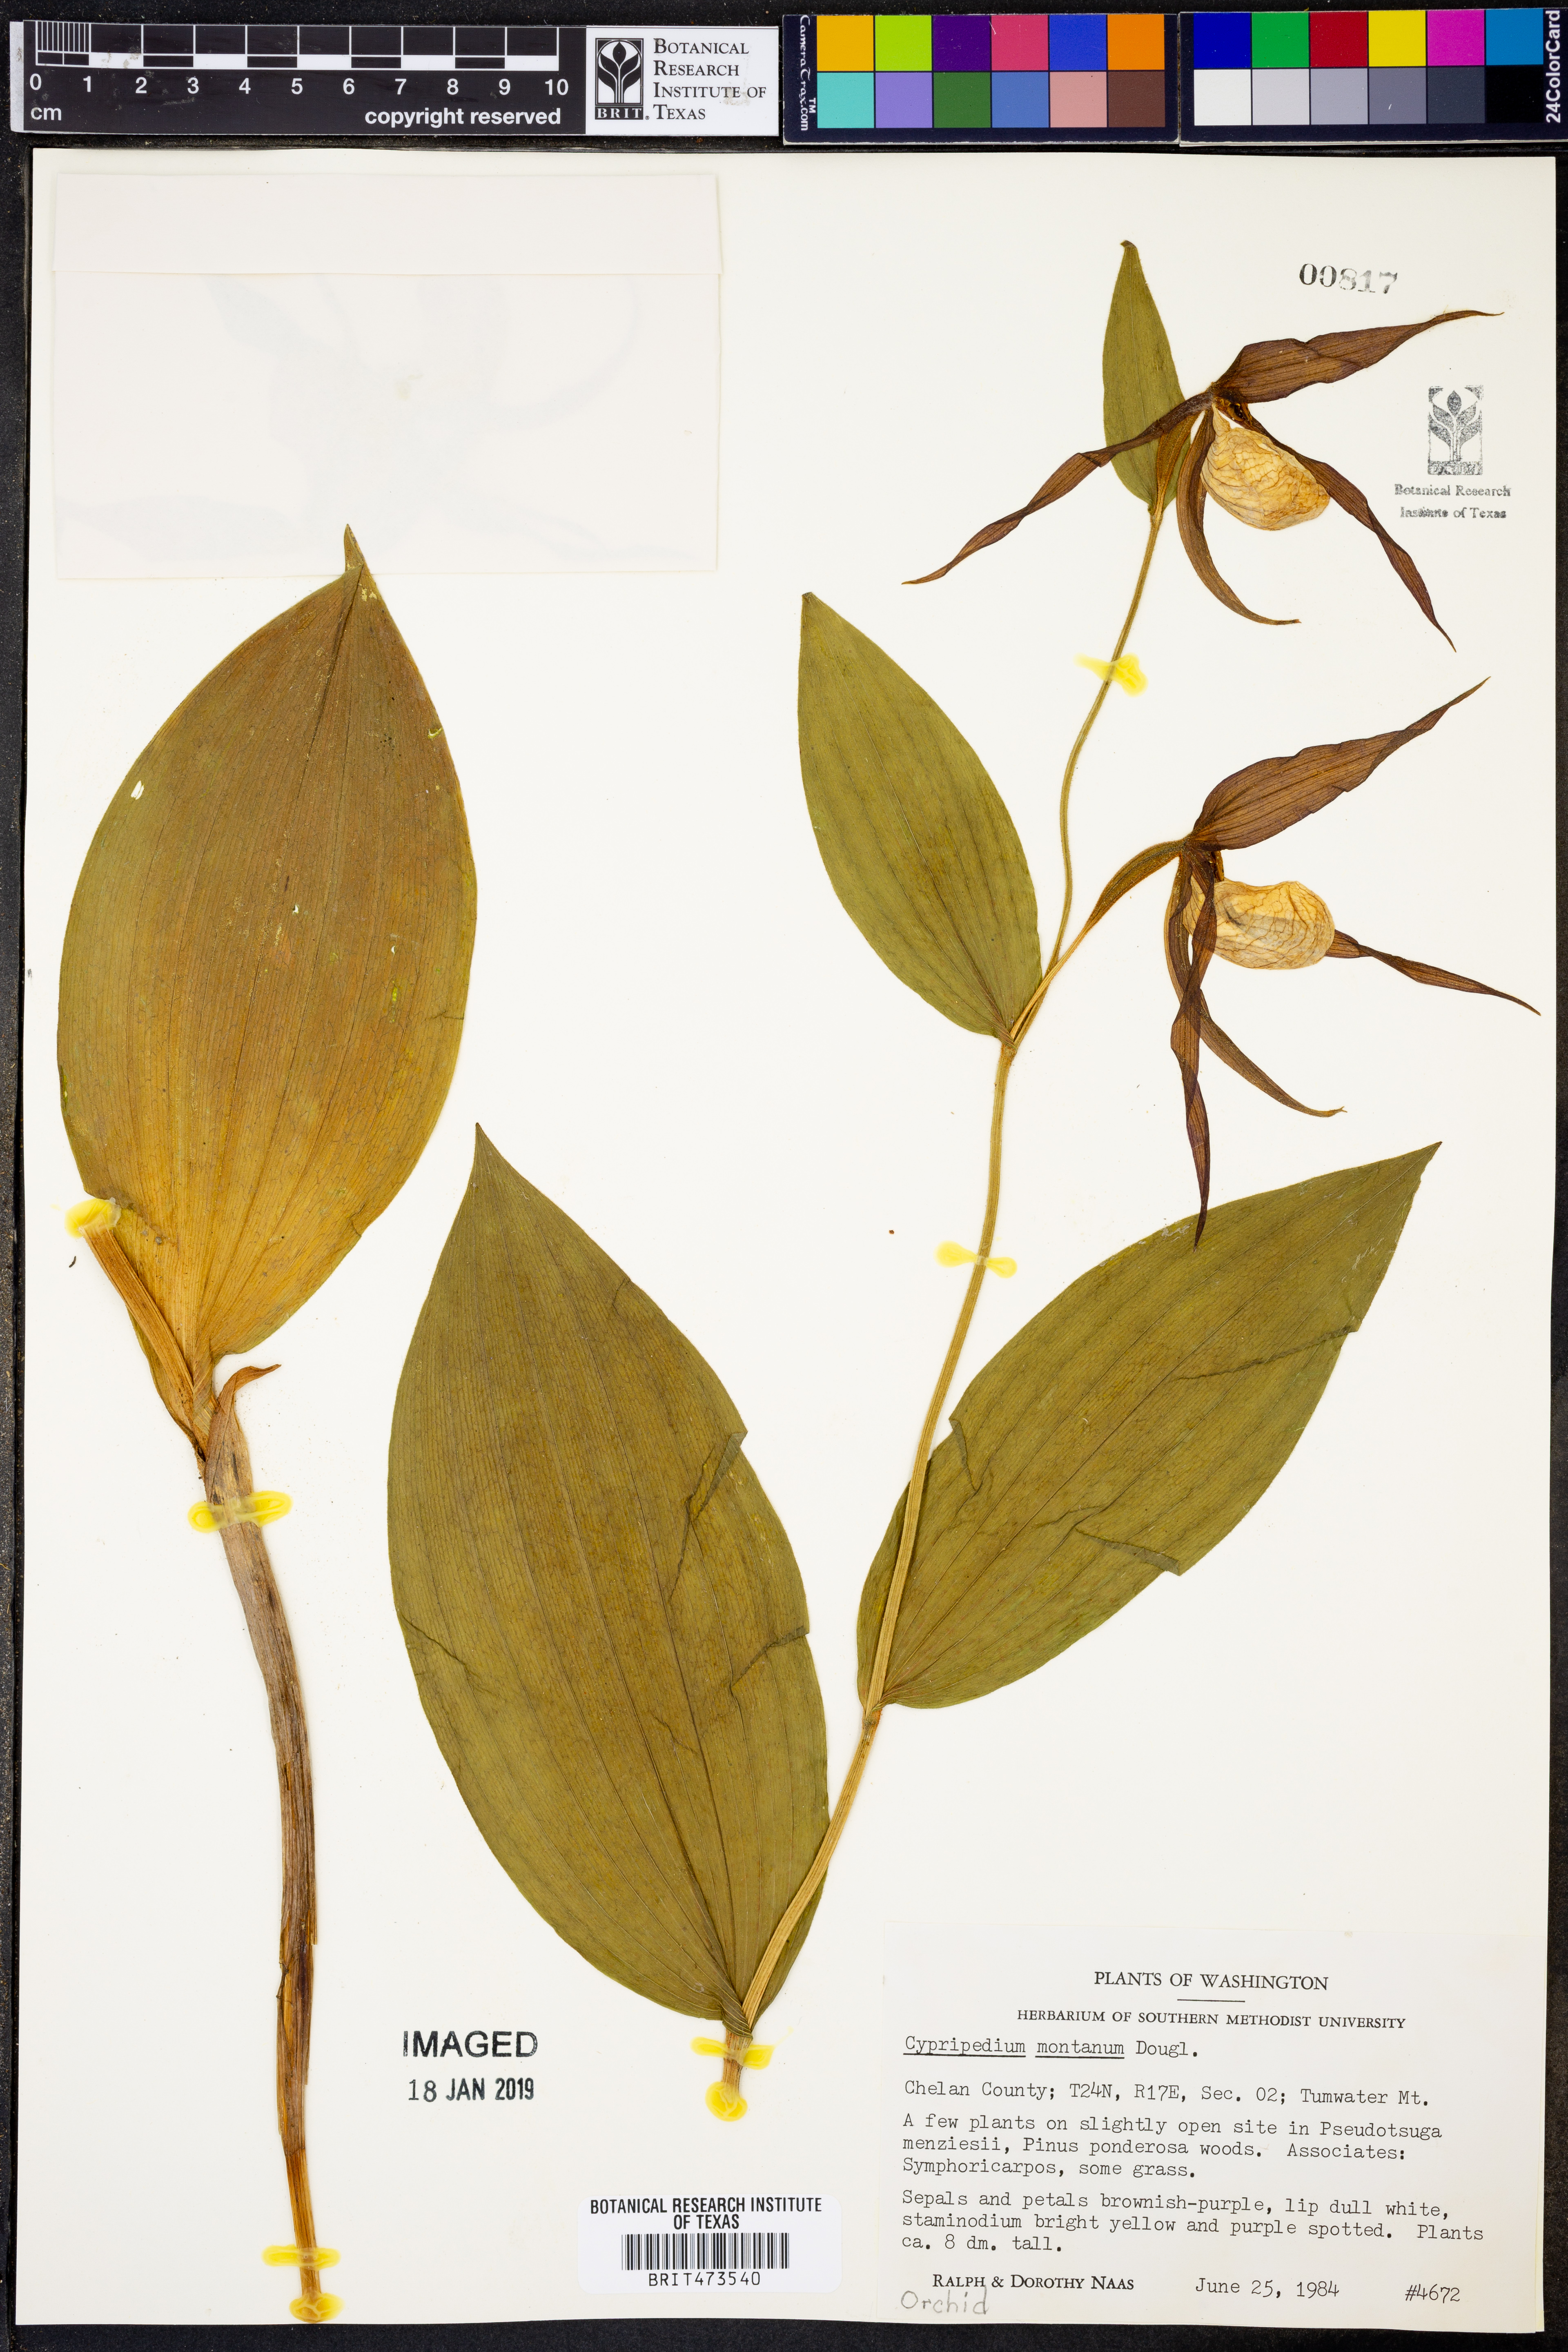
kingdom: Plantae
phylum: Tracheophyta
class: Liliopsida
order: Asparagales
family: Orchidaceae
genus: Cypripedium
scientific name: Cypripedium montanum
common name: Mountain lady's-slipper
